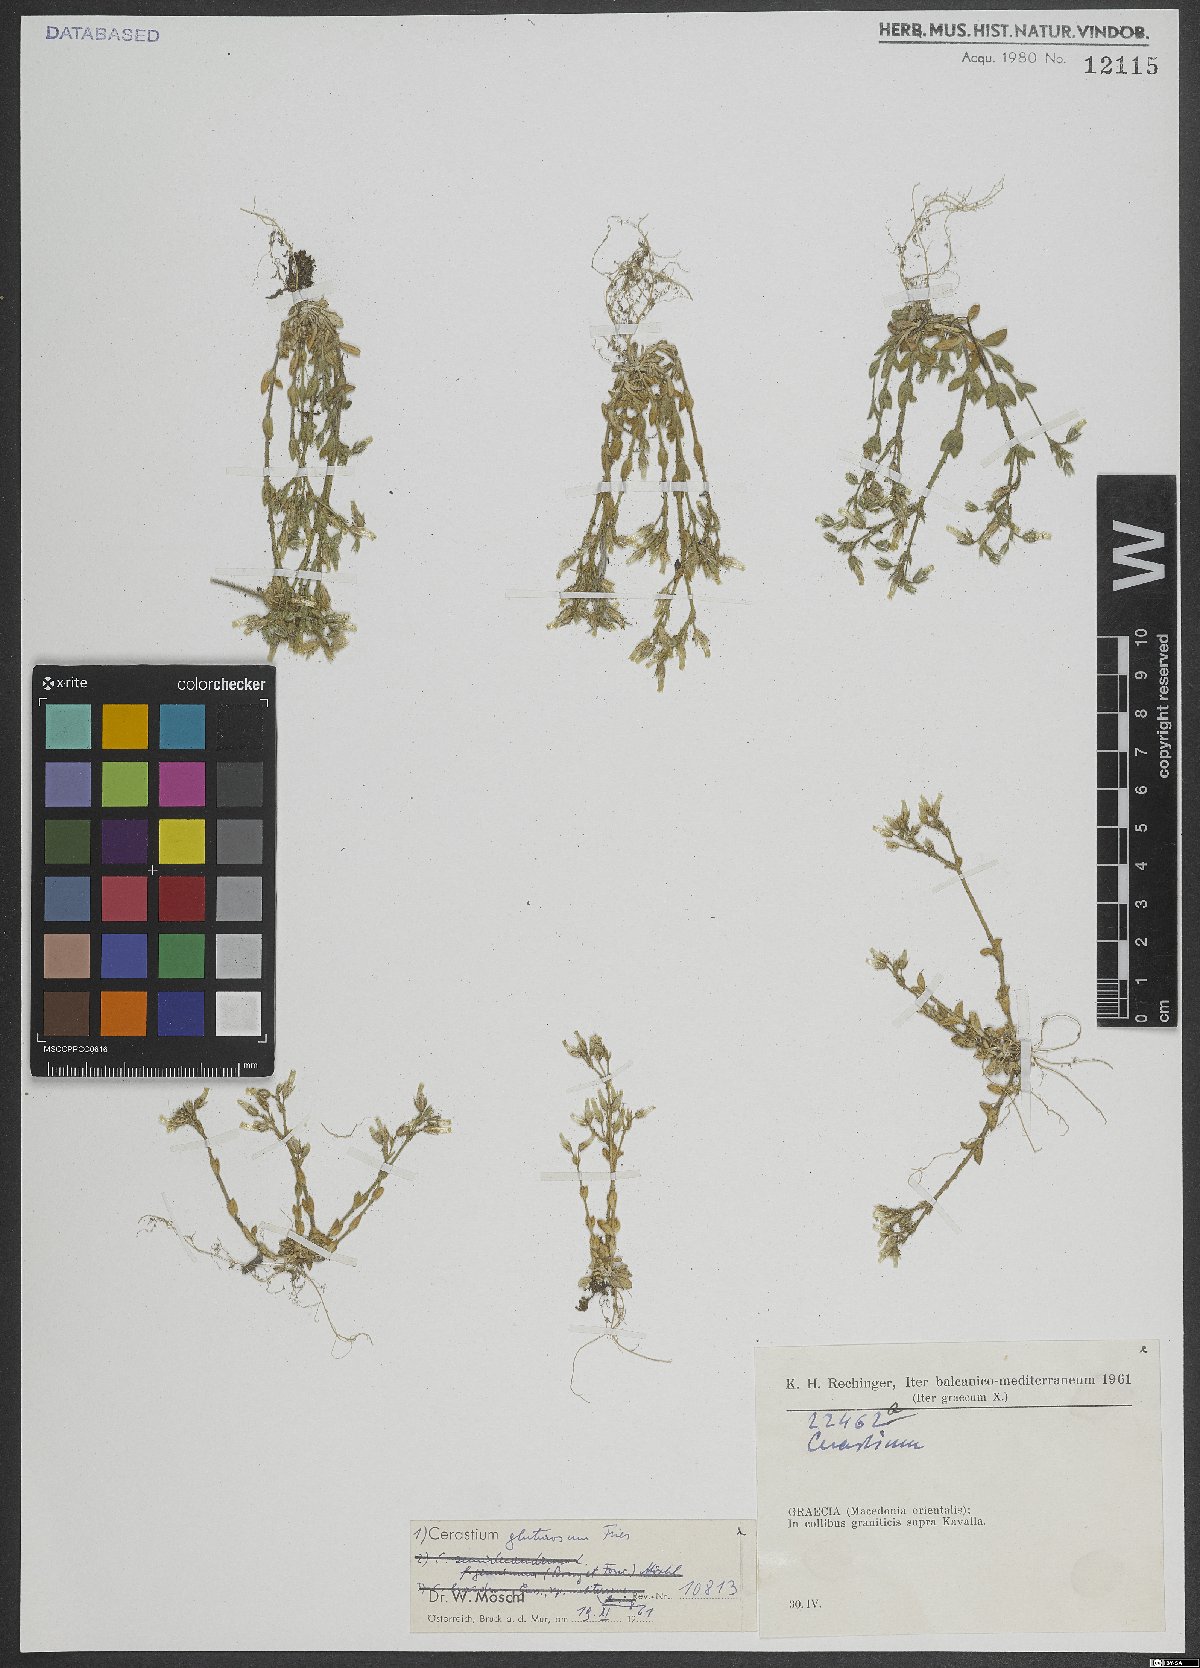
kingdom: Plantae
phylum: Tracheophyta
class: Magnoliopsida
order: Caryophyllales
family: Caryophyllaceae
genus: Cerastium
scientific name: Cerastium glutinosum
